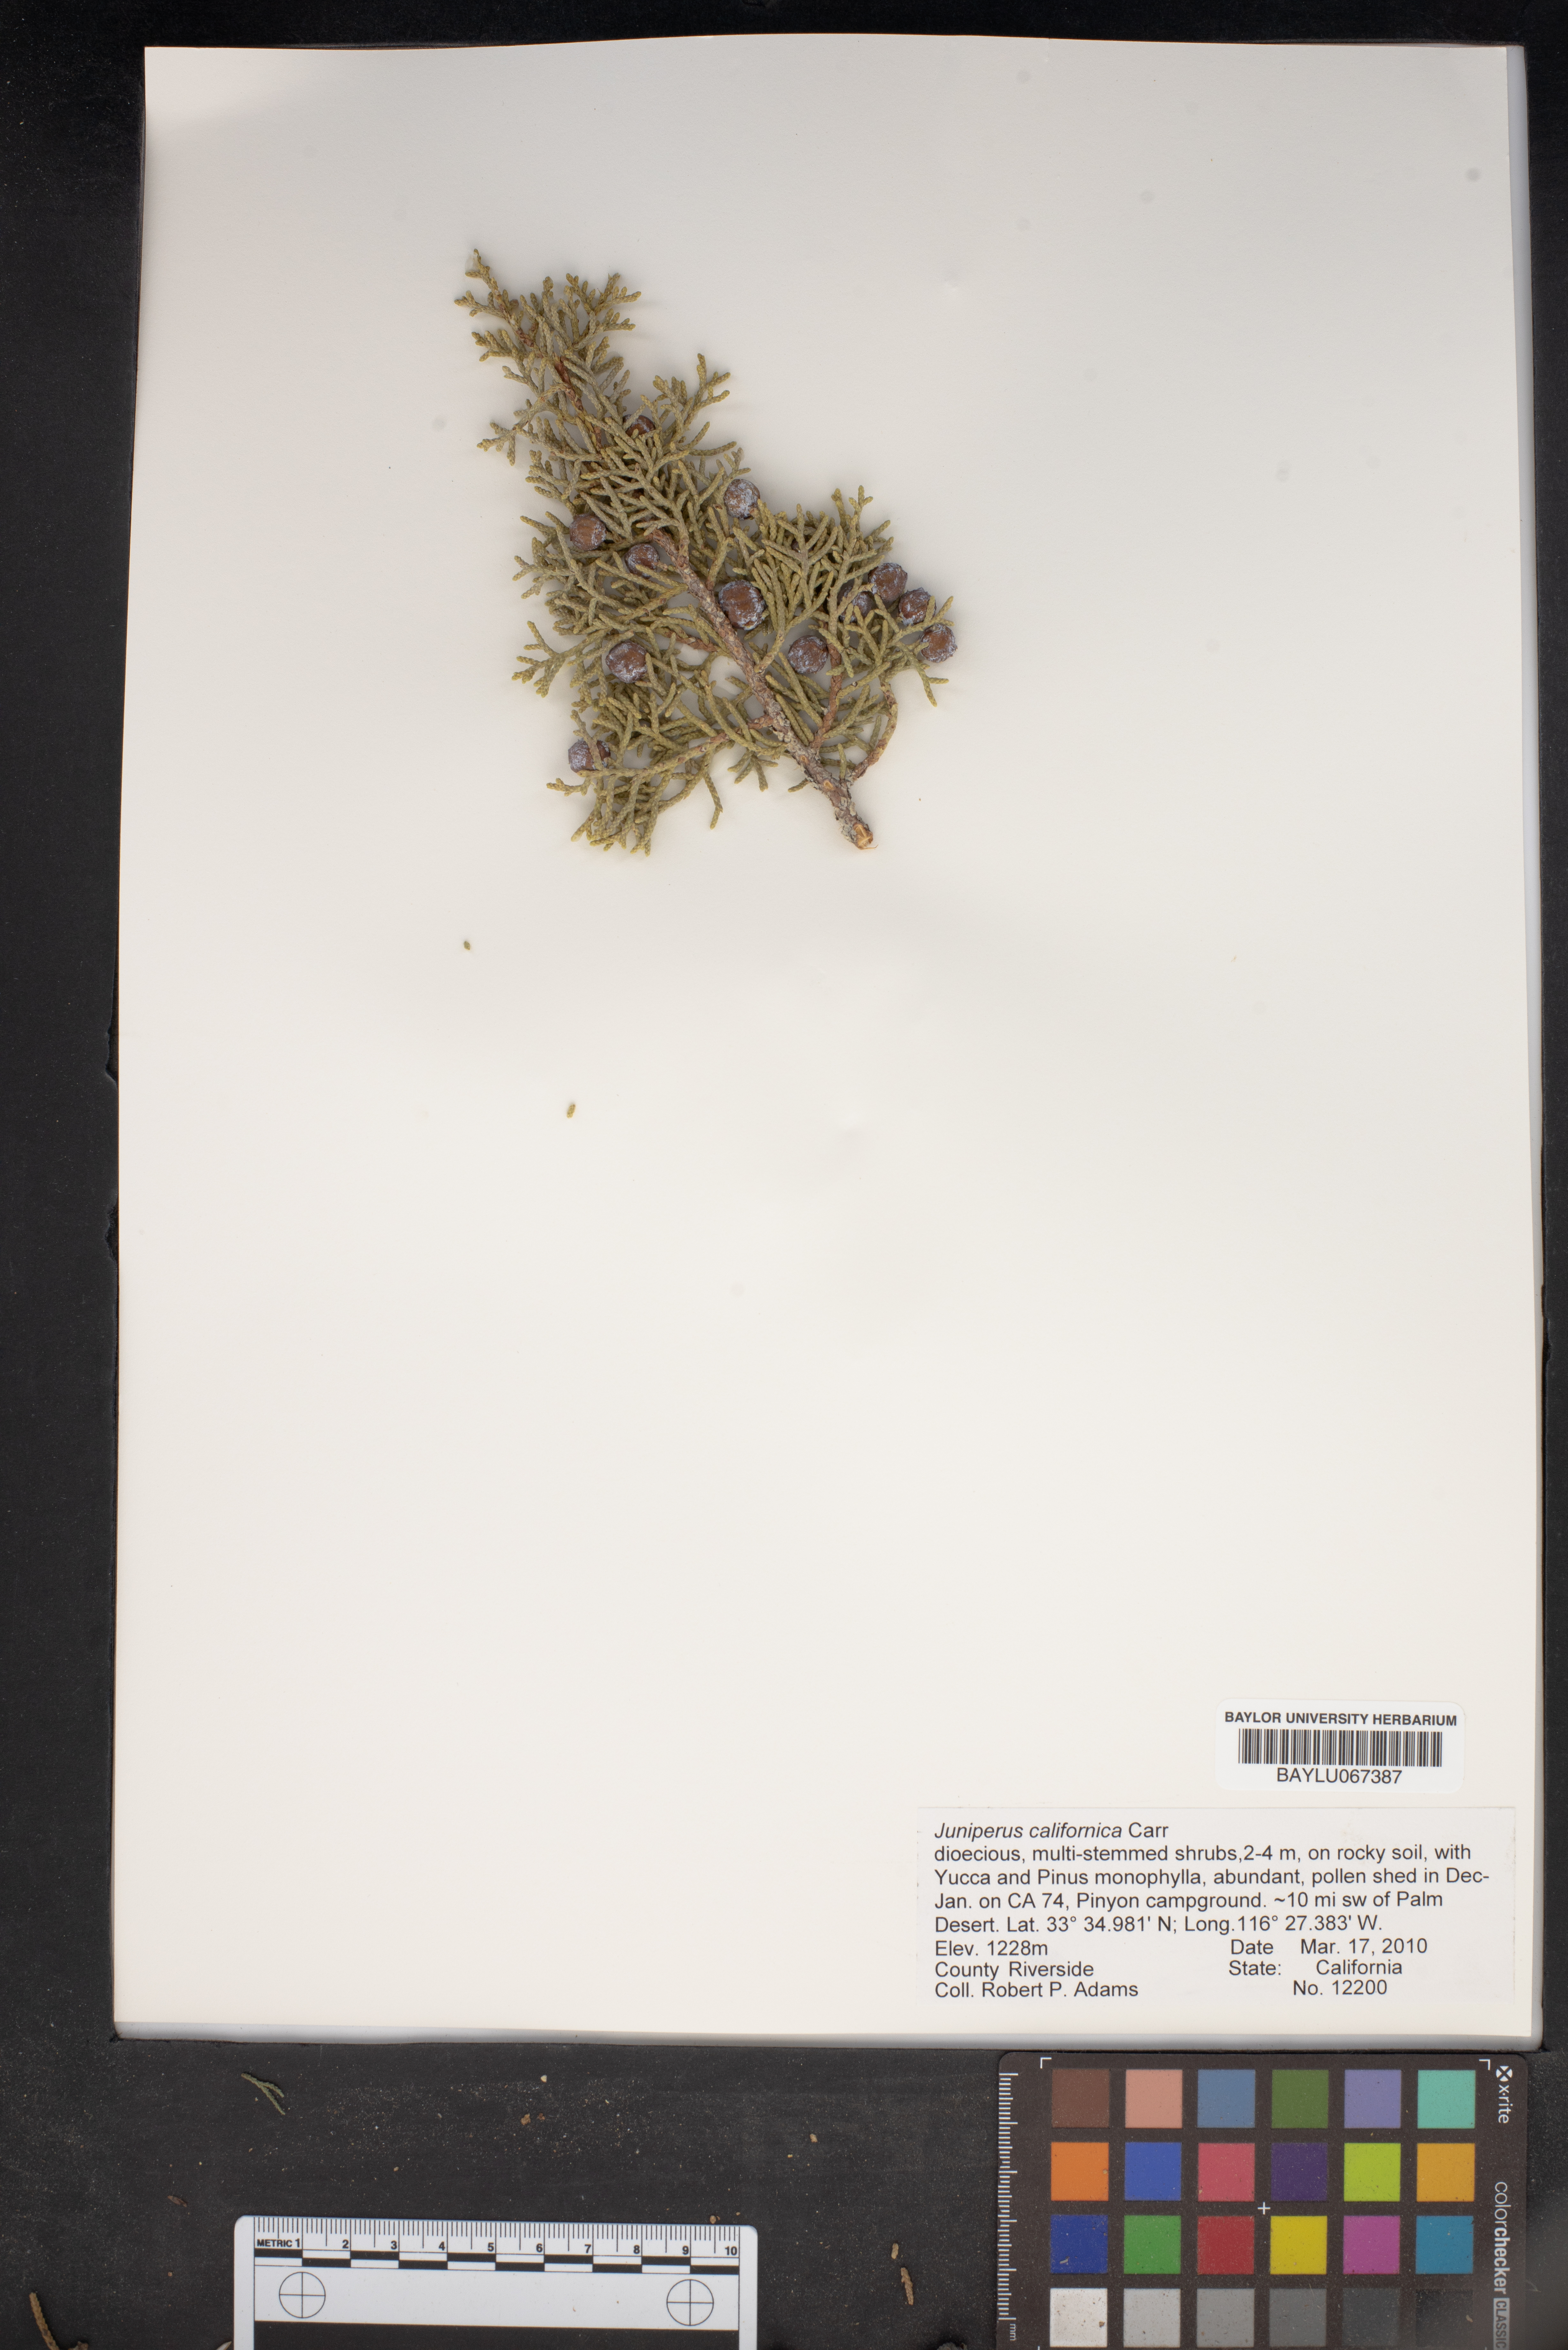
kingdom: Plantae
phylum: Tracheophyta
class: Pinopsida
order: Pinales
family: Cupressaceae
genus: Juniperus
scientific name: Juniperus californica
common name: California juniper
